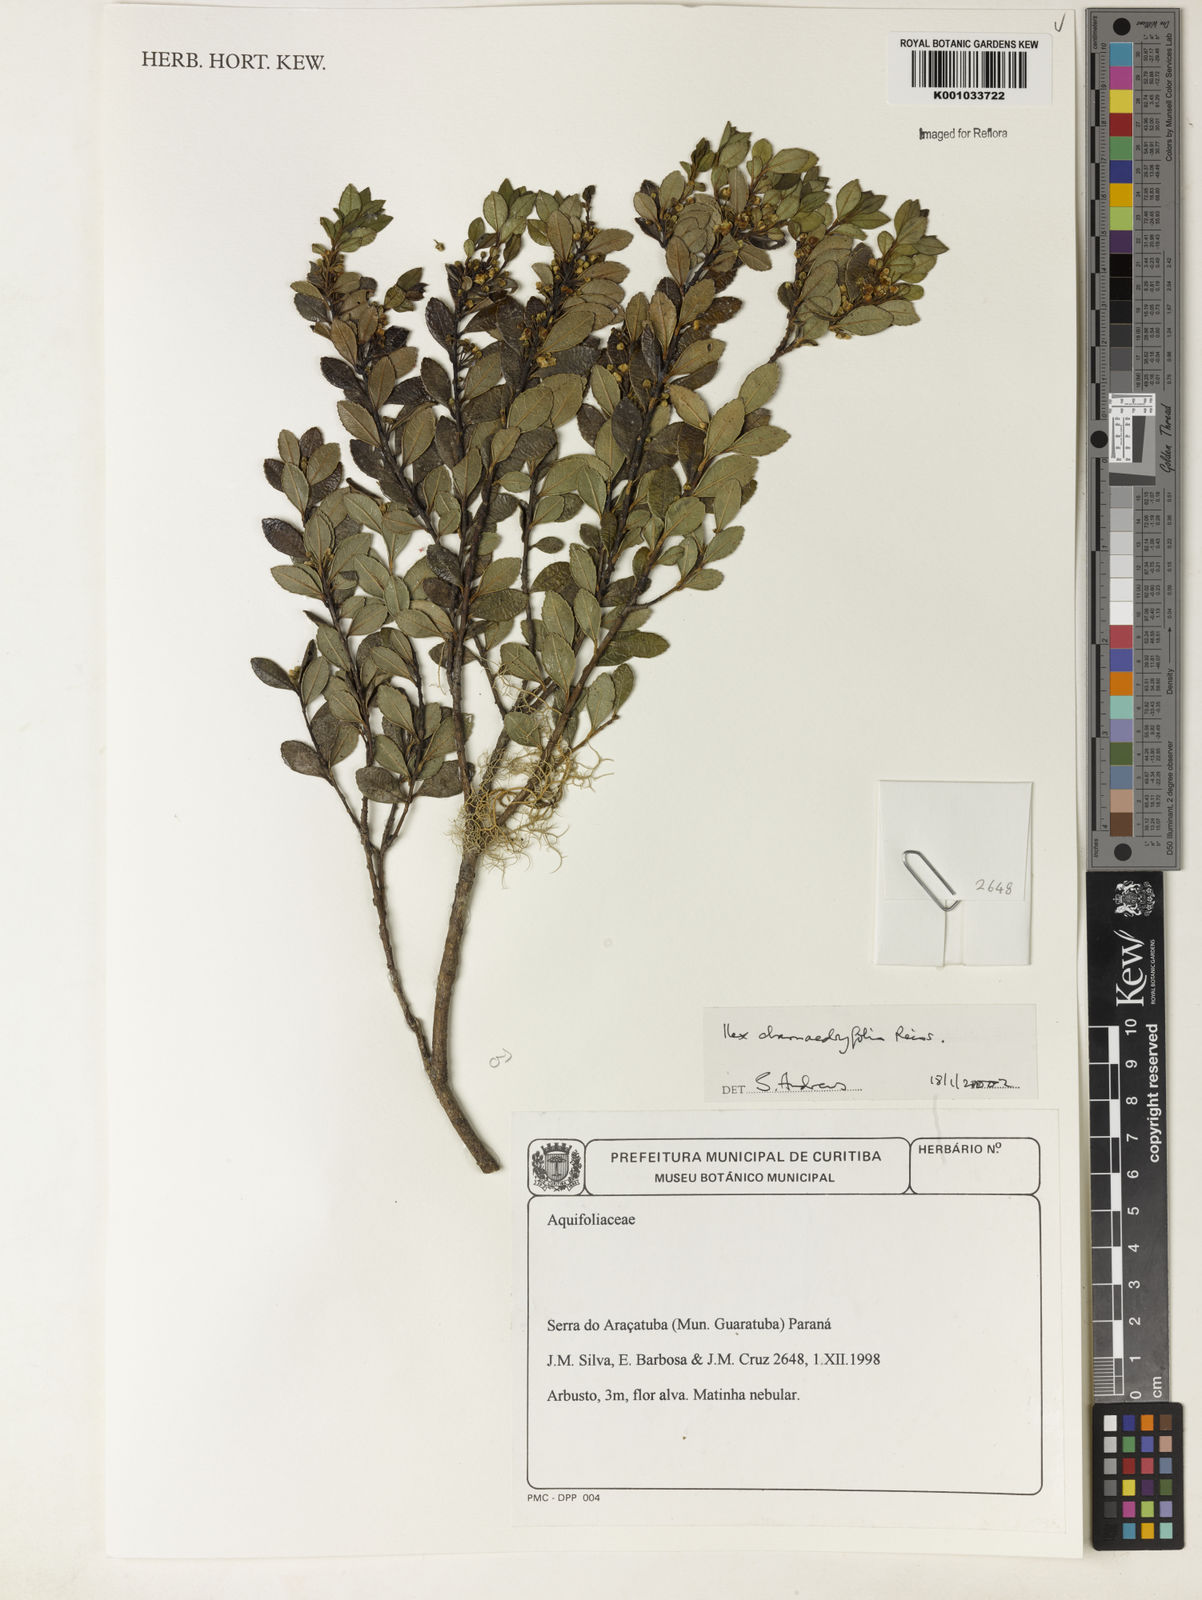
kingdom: Plantae
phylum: Tracheophyta
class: Magnoliopsida
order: Aquifoliales
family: Aquifoliaceae
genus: Ilex
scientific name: Ilex chamaedryfolia
